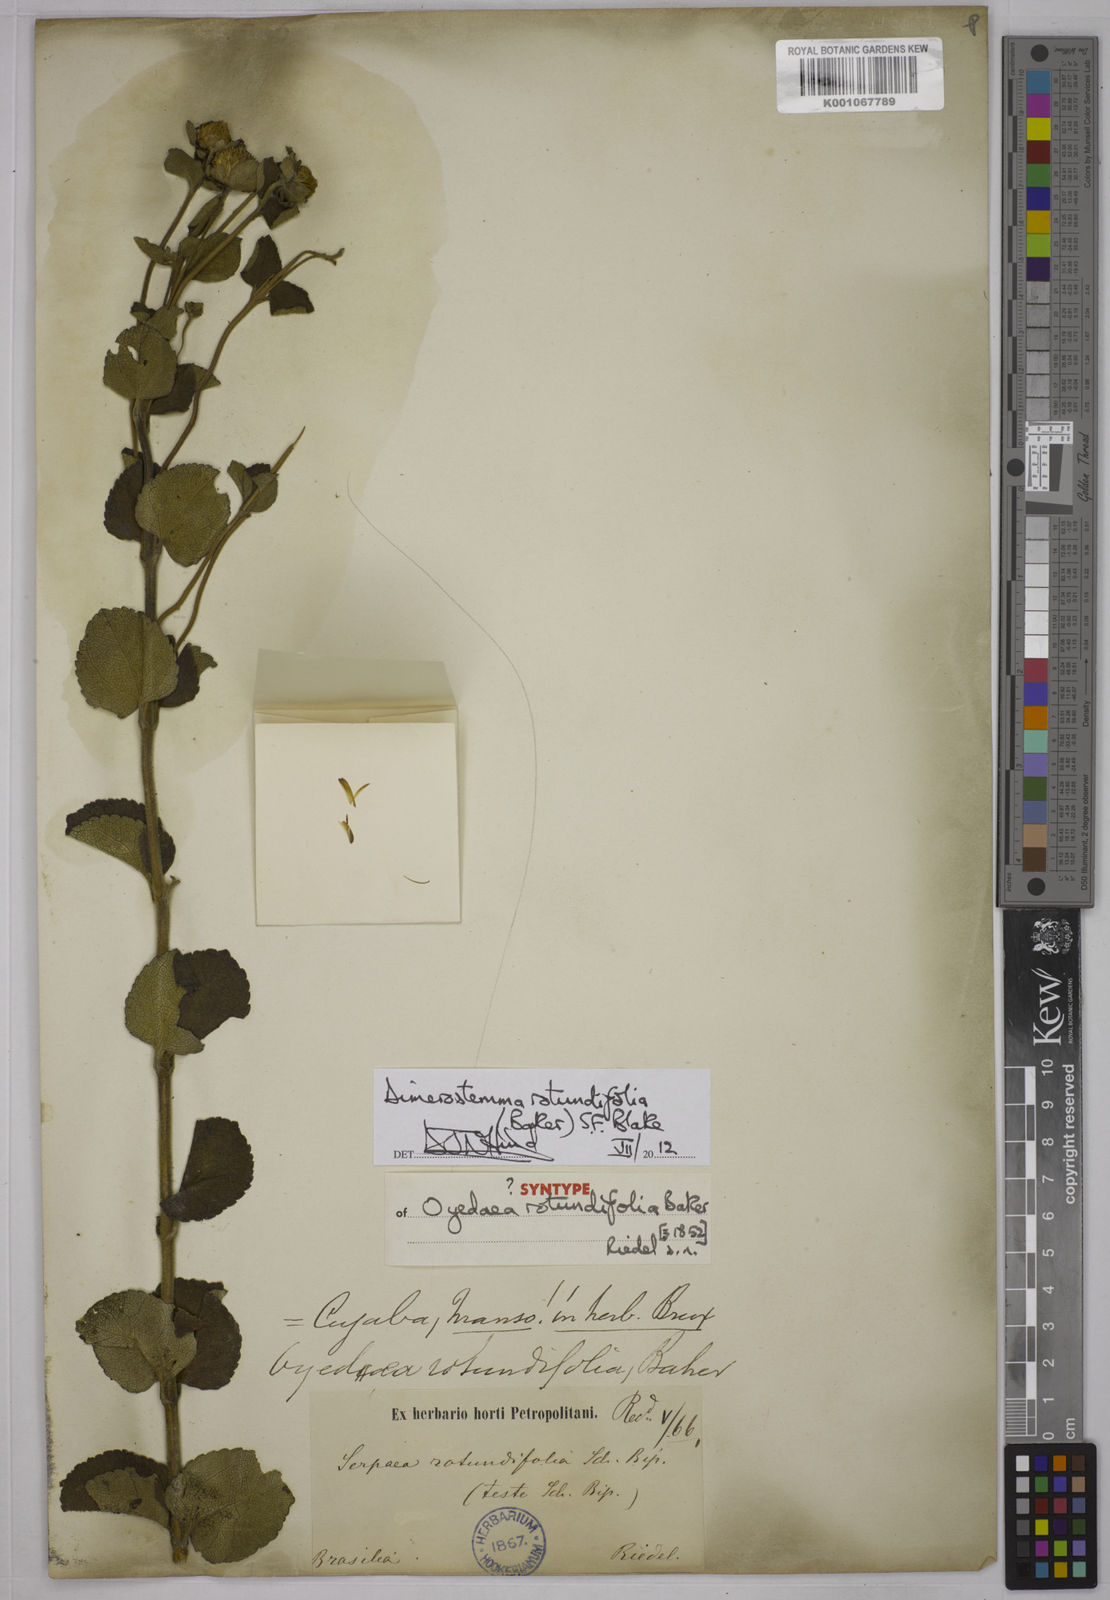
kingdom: Plantae
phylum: Tracheophyta
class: Magnoliopsida
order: Asterales
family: Asteraceae
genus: Dimerostemma
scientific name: Dimerostemma brasilianum
